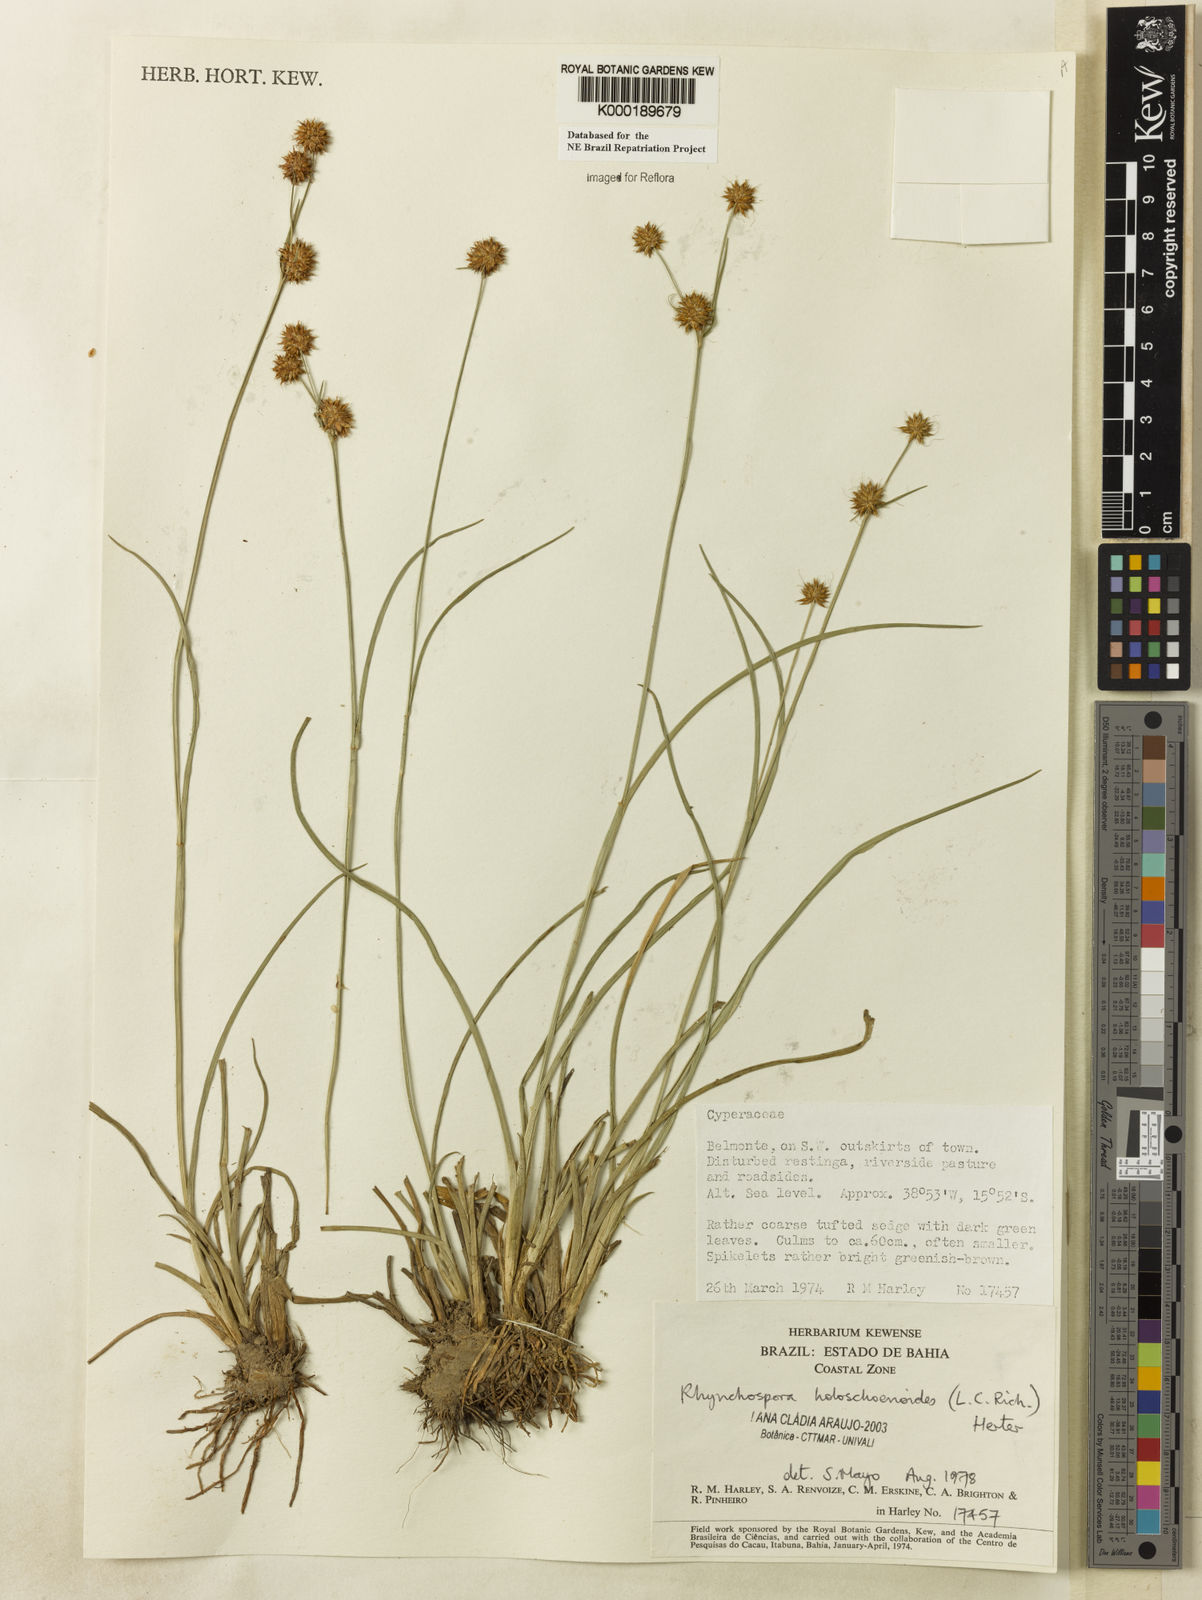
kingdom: Plantae
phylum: Tracheophyta
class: Liliopsida
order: Poales
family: Cyperaceae
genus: Rhynchospora
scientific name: Rhynchospora holoschoenoides
